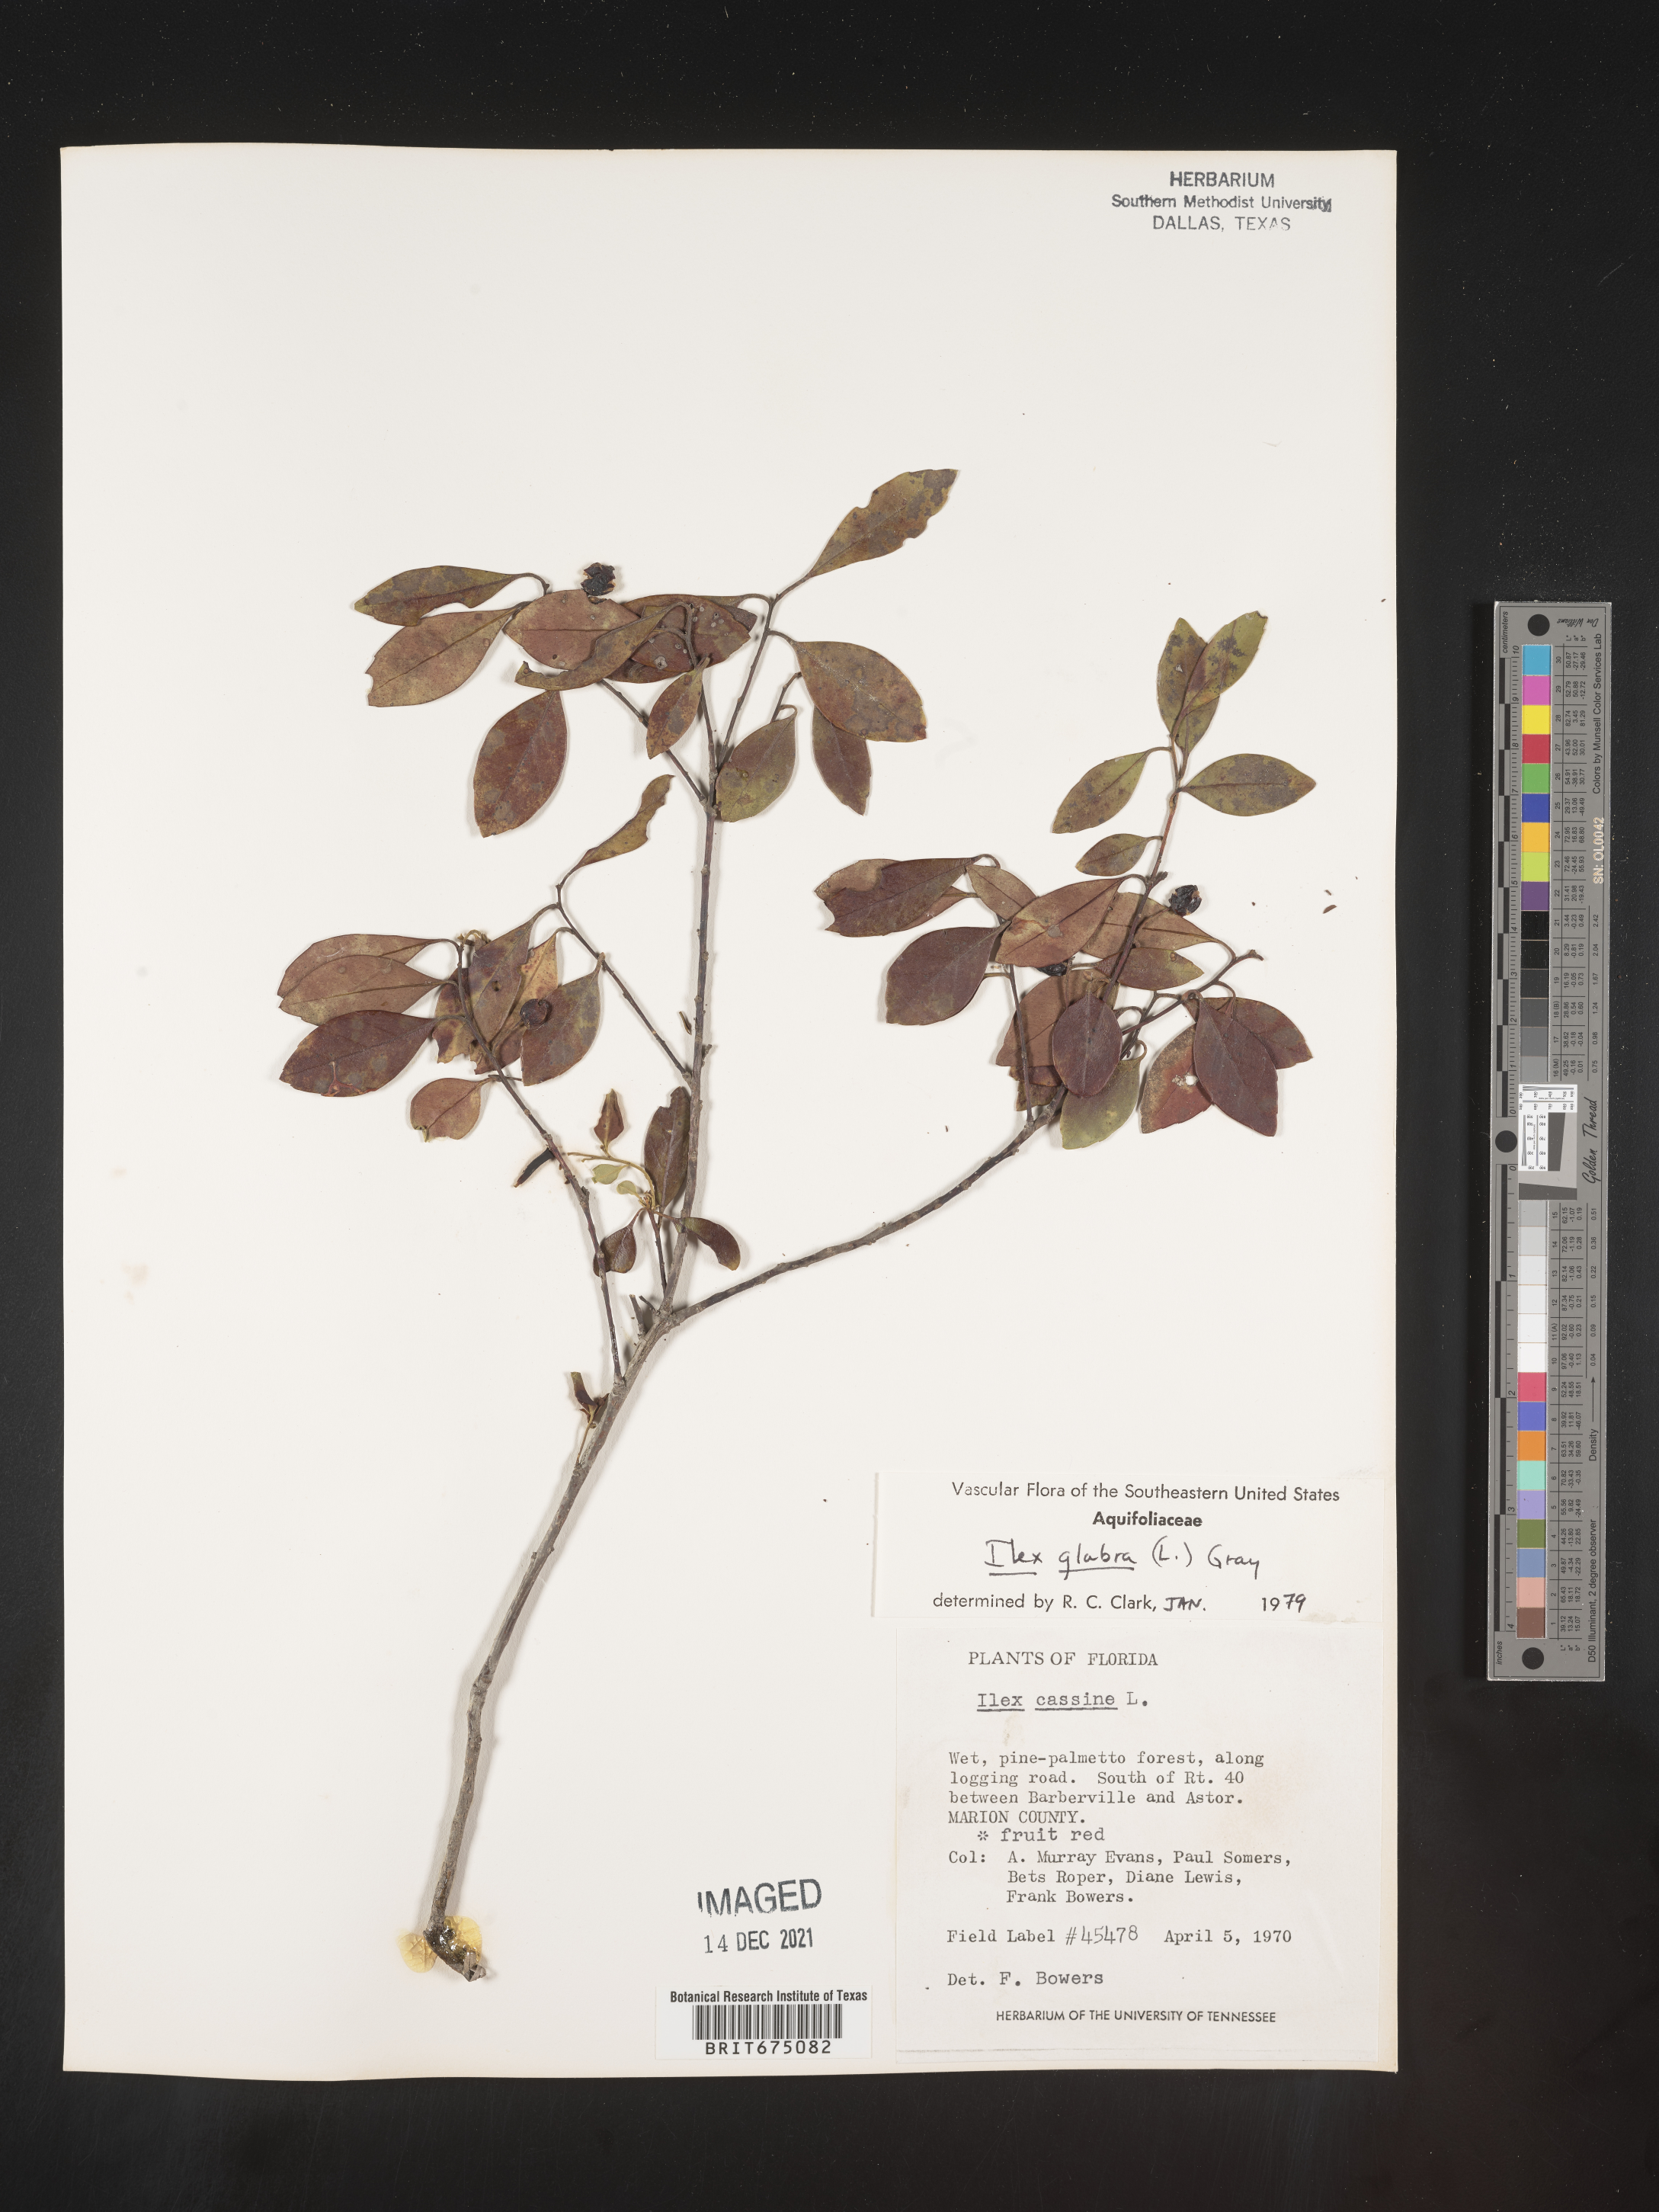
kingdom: Plantae
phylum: Tracheophyta
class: Magnoliopsida
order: Aquifoliales
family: Aquifoliaceae
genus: Ilex
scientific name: Ilex glabra
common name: Bitter gallberry
